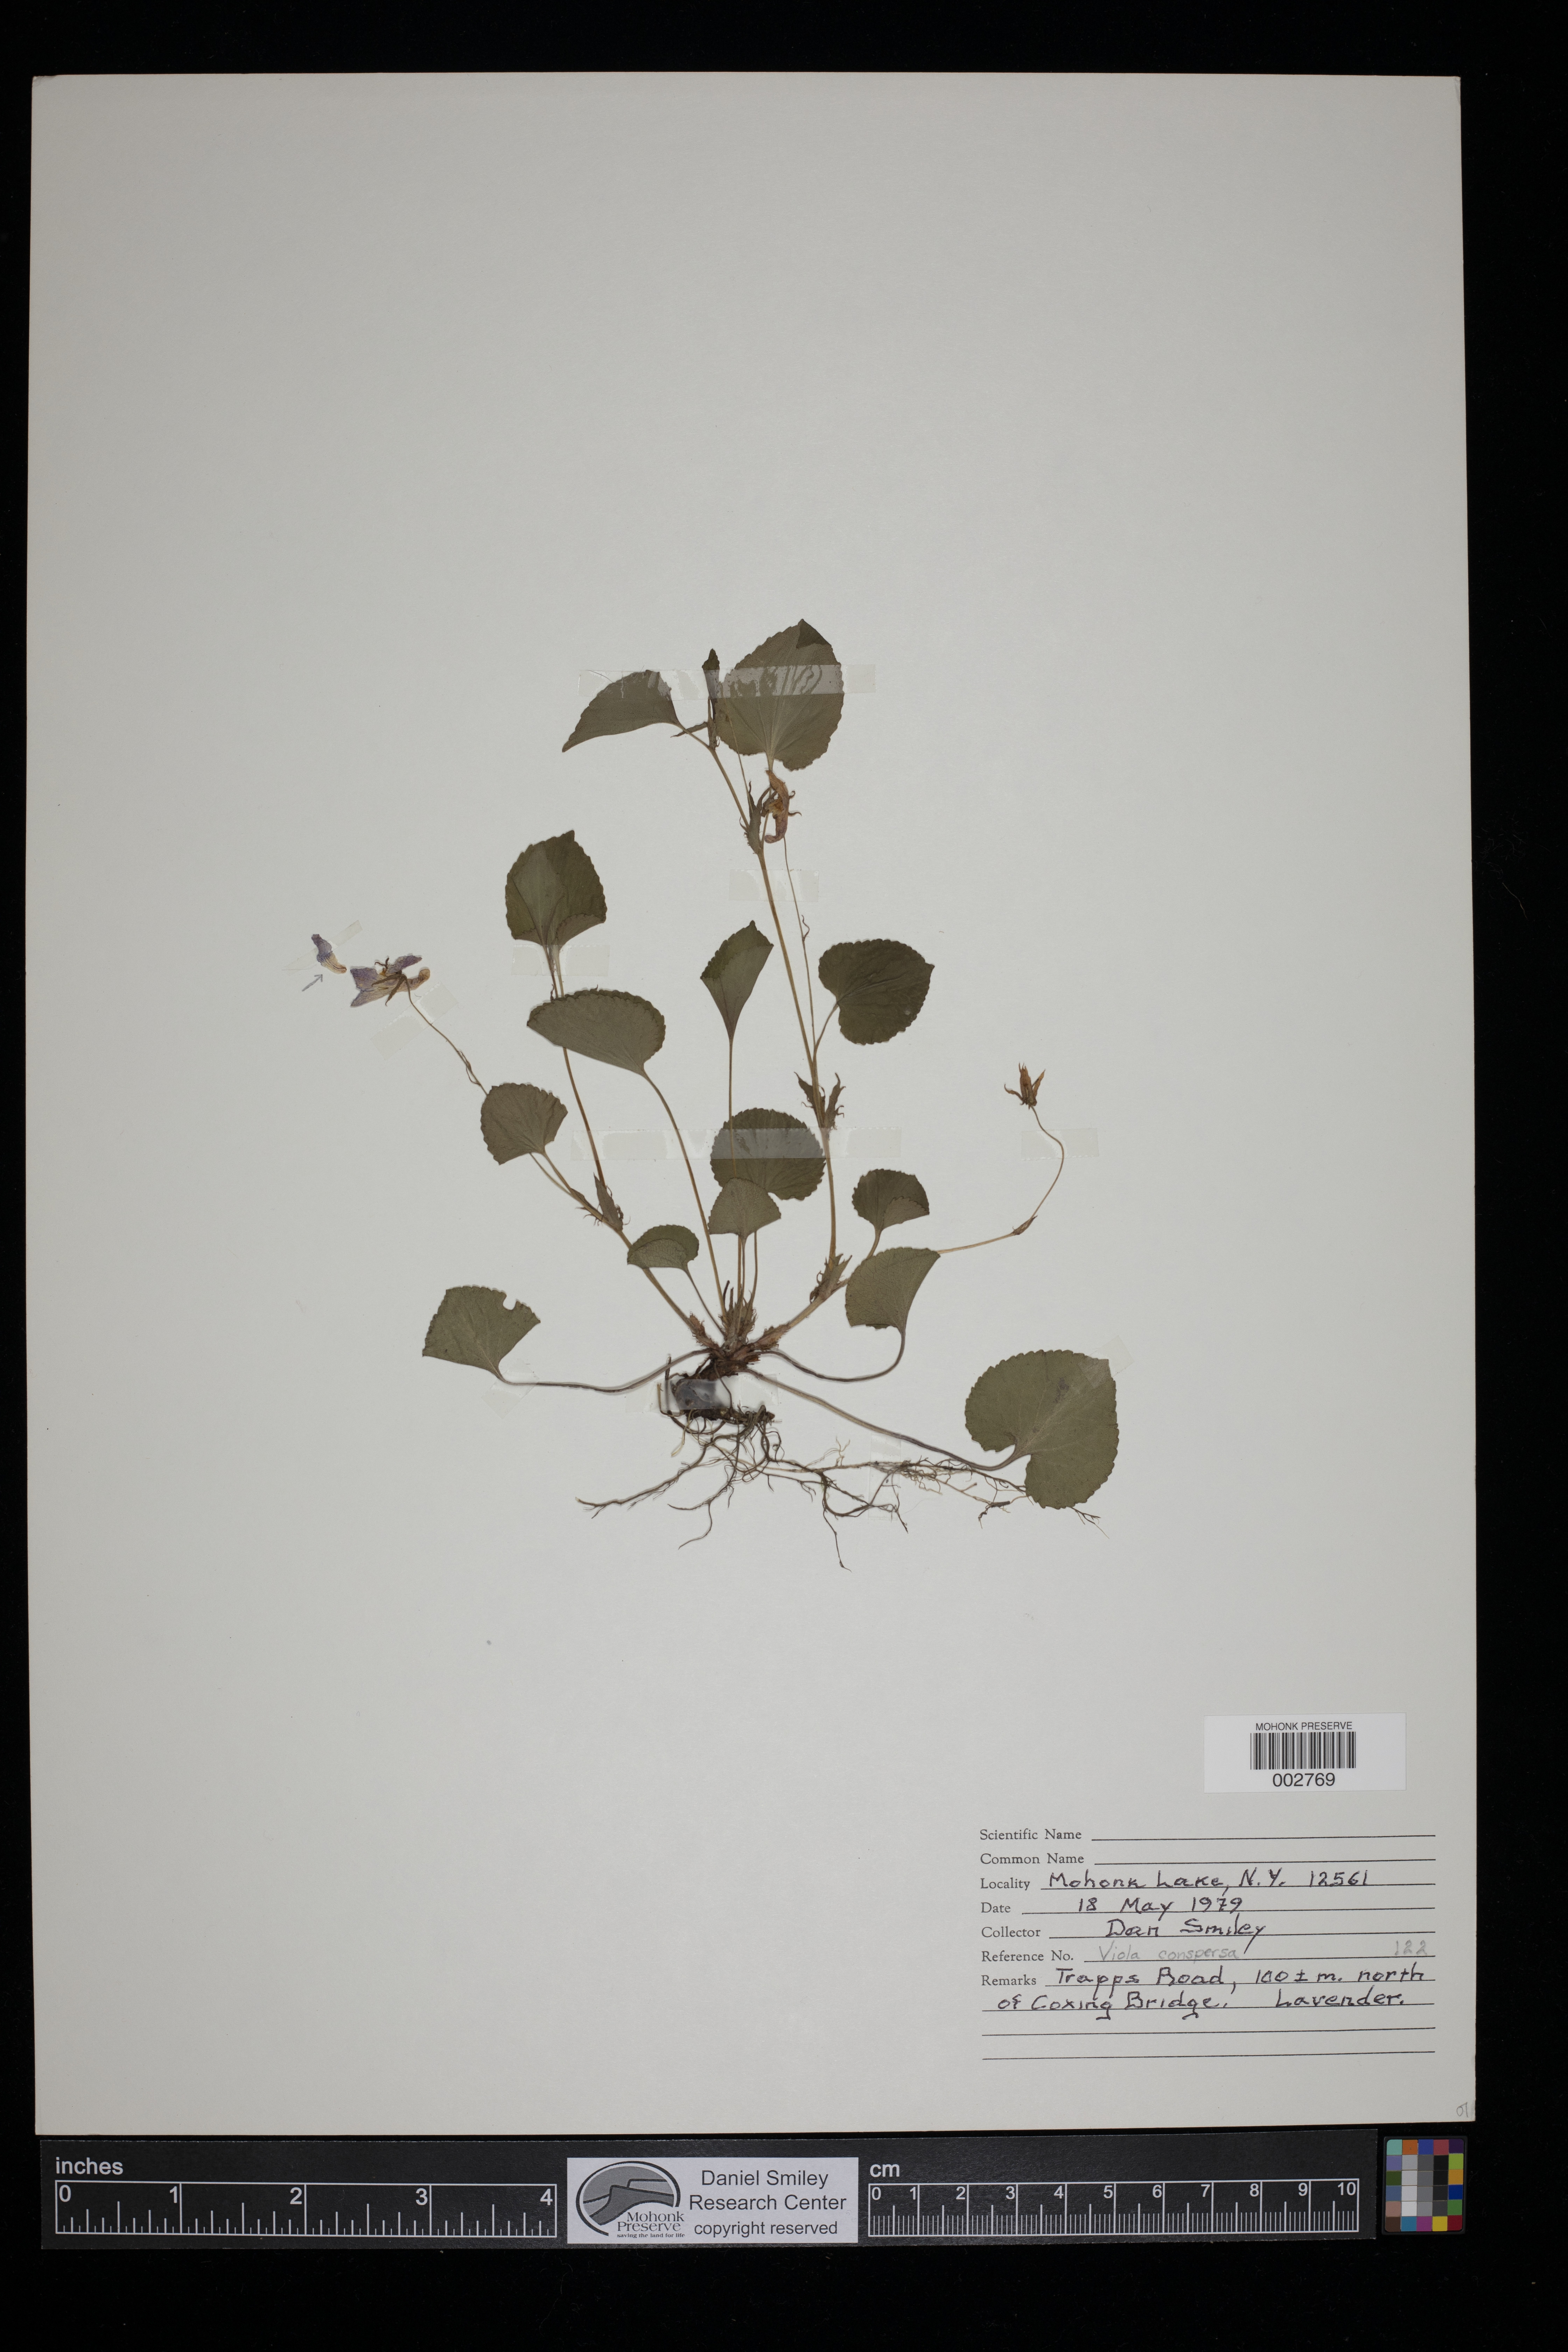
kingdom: Plantae
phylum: Tracheophyta
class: Magnoliopsida
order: Malpighiales
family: Violaceae
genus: Viola
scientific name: Viola labradorica
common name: Labrador violet
